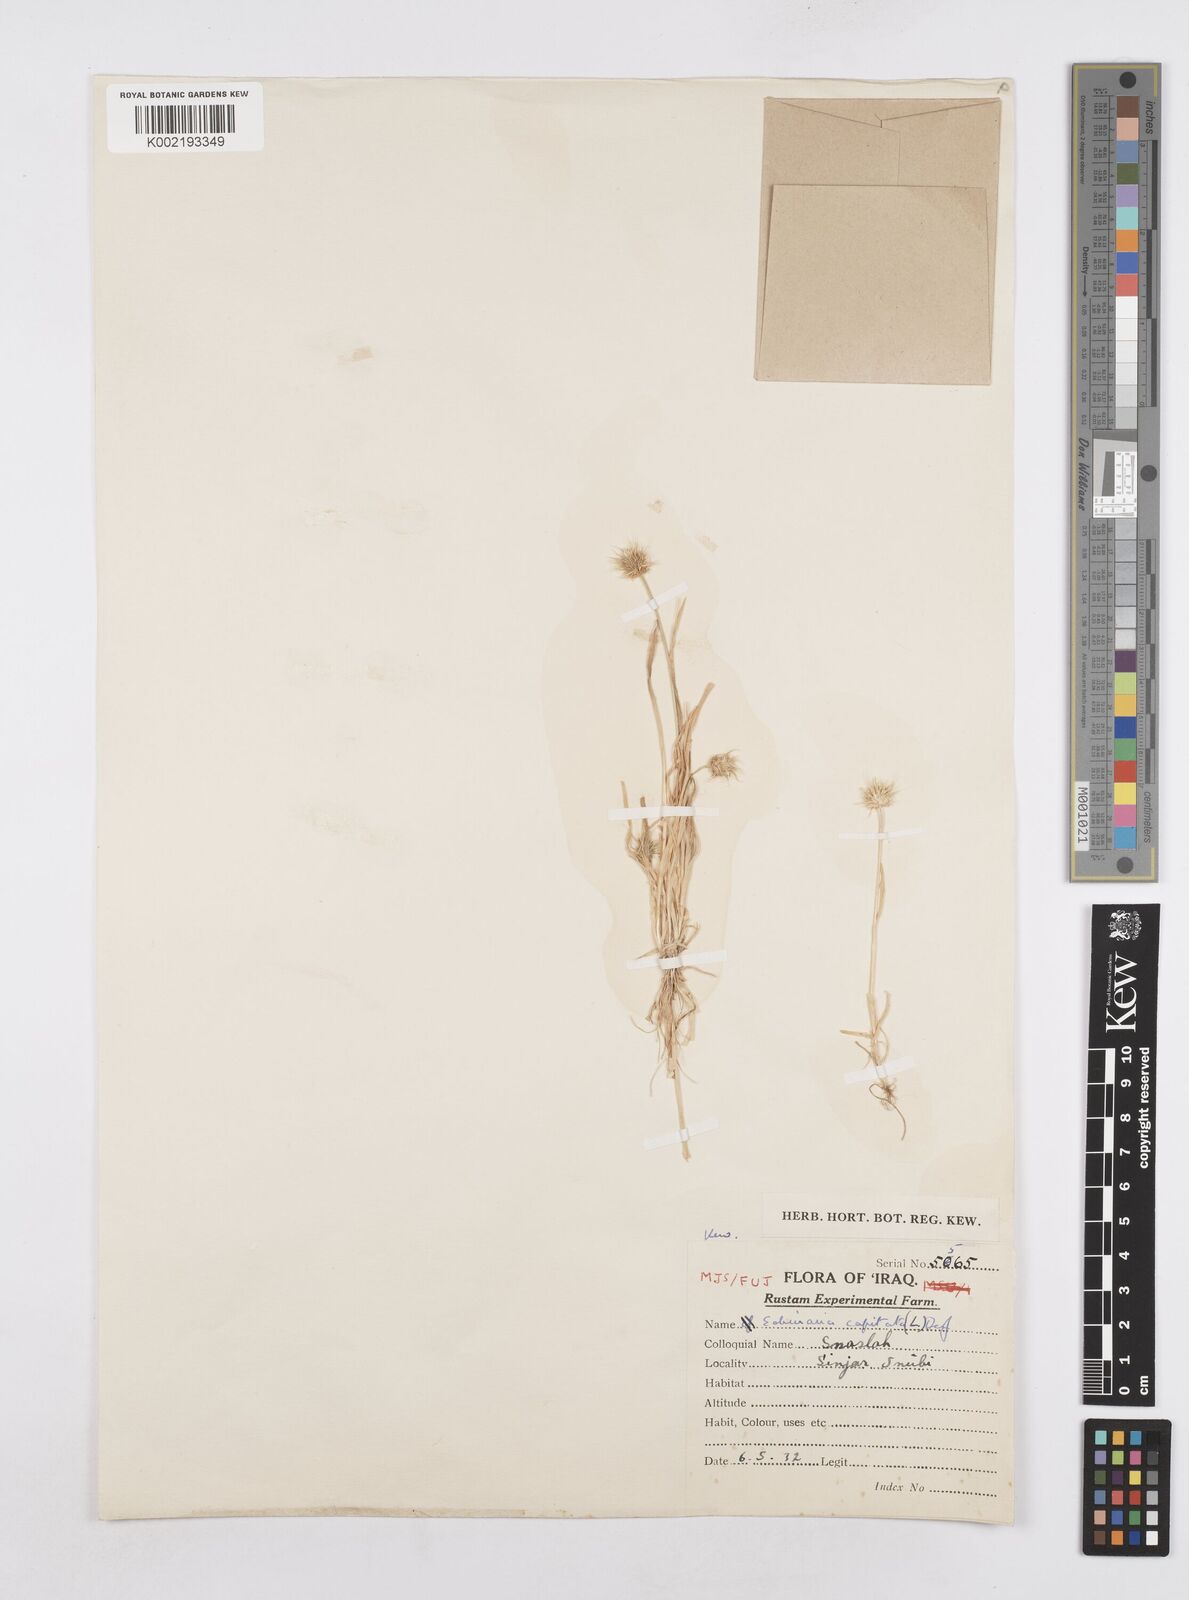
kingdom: Plantae
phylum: Tracheophyta
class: Liliopsida
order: Poales
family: Poaceae
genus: Echinaria
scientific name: Echinaria capitata
